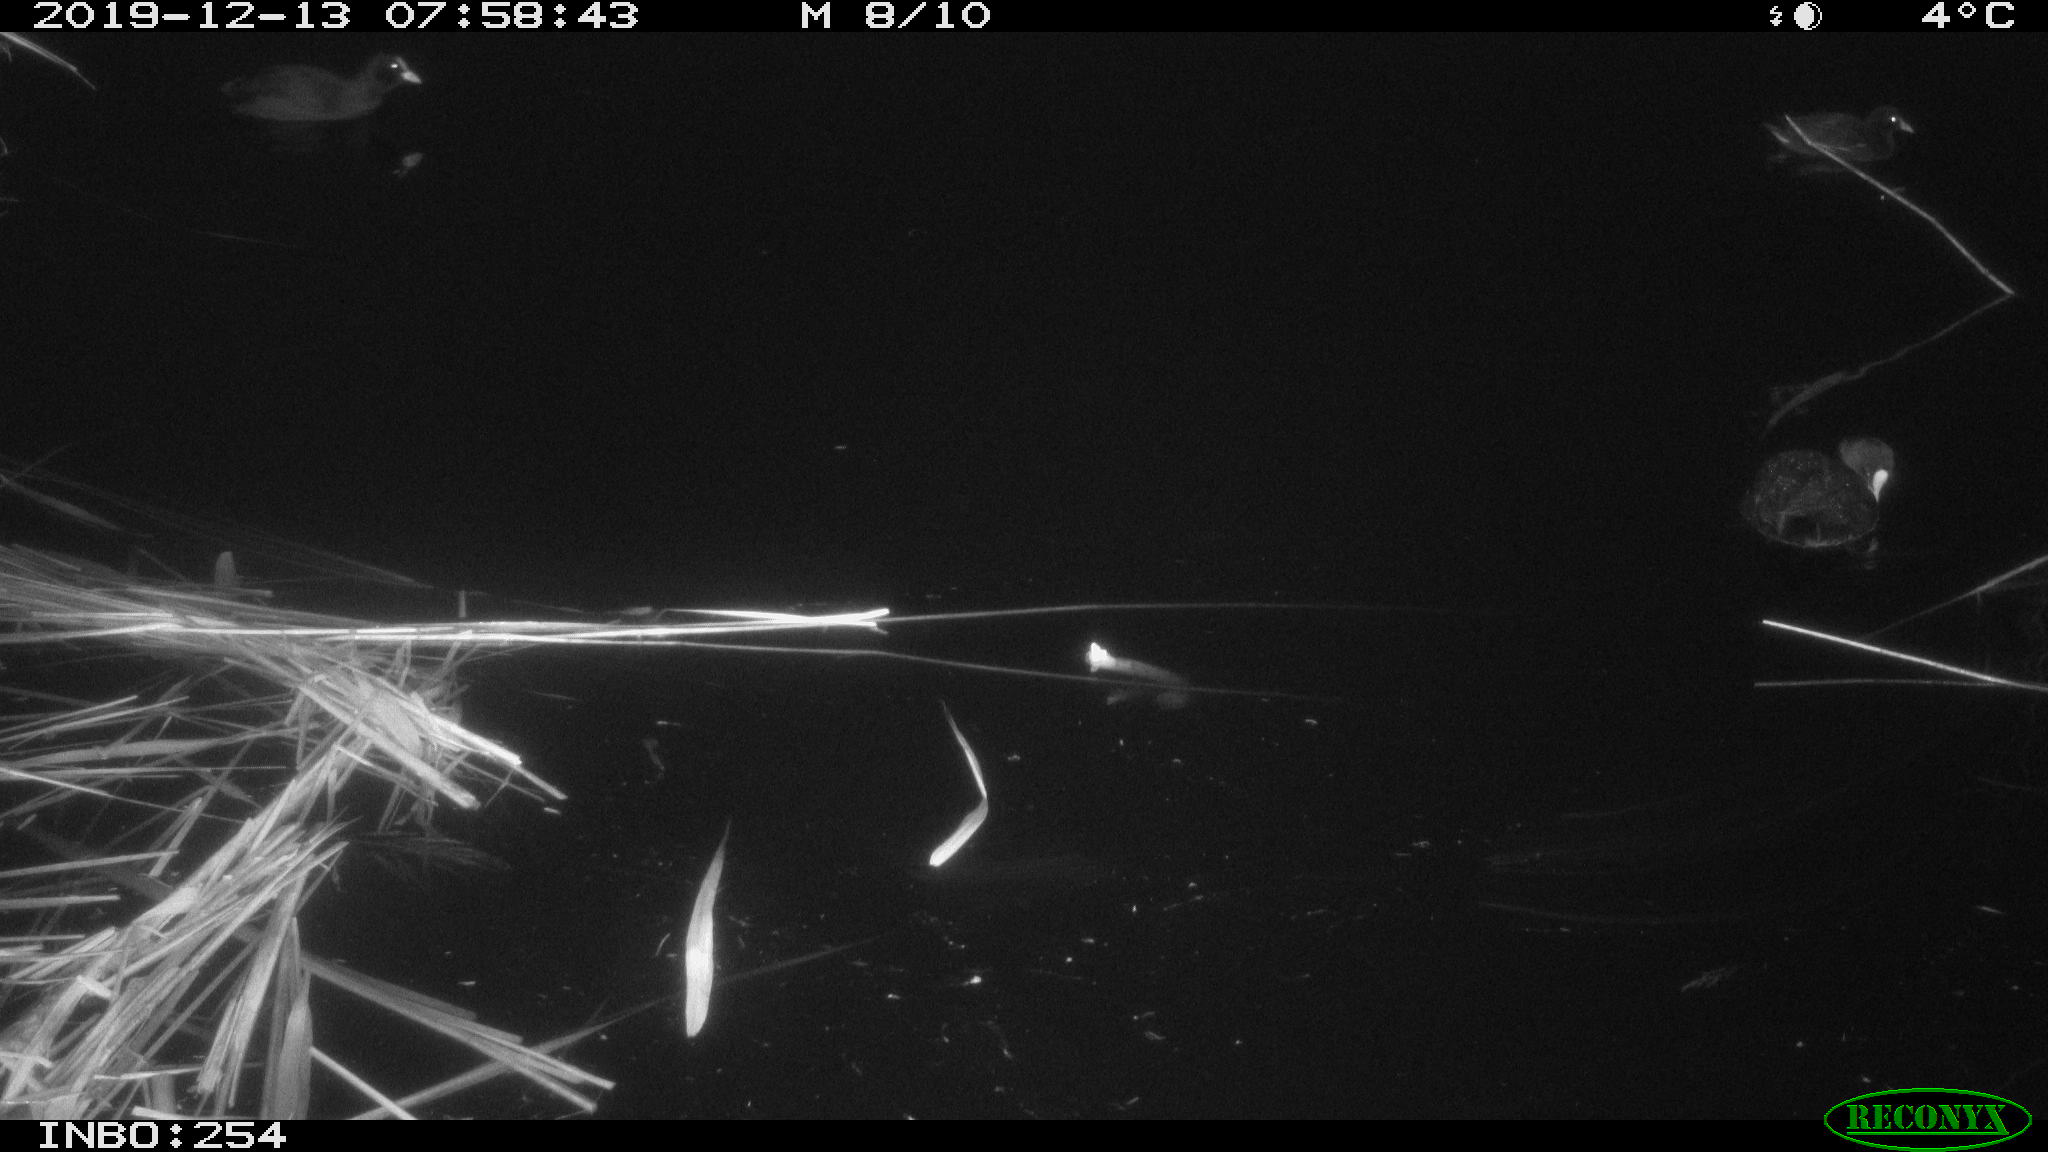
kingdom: Animalia
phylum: Chordata
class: Aves
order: Gruiformes
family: Rallidae
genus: Gallinula
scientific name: Gallinula chloropus
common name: Common moorhen
